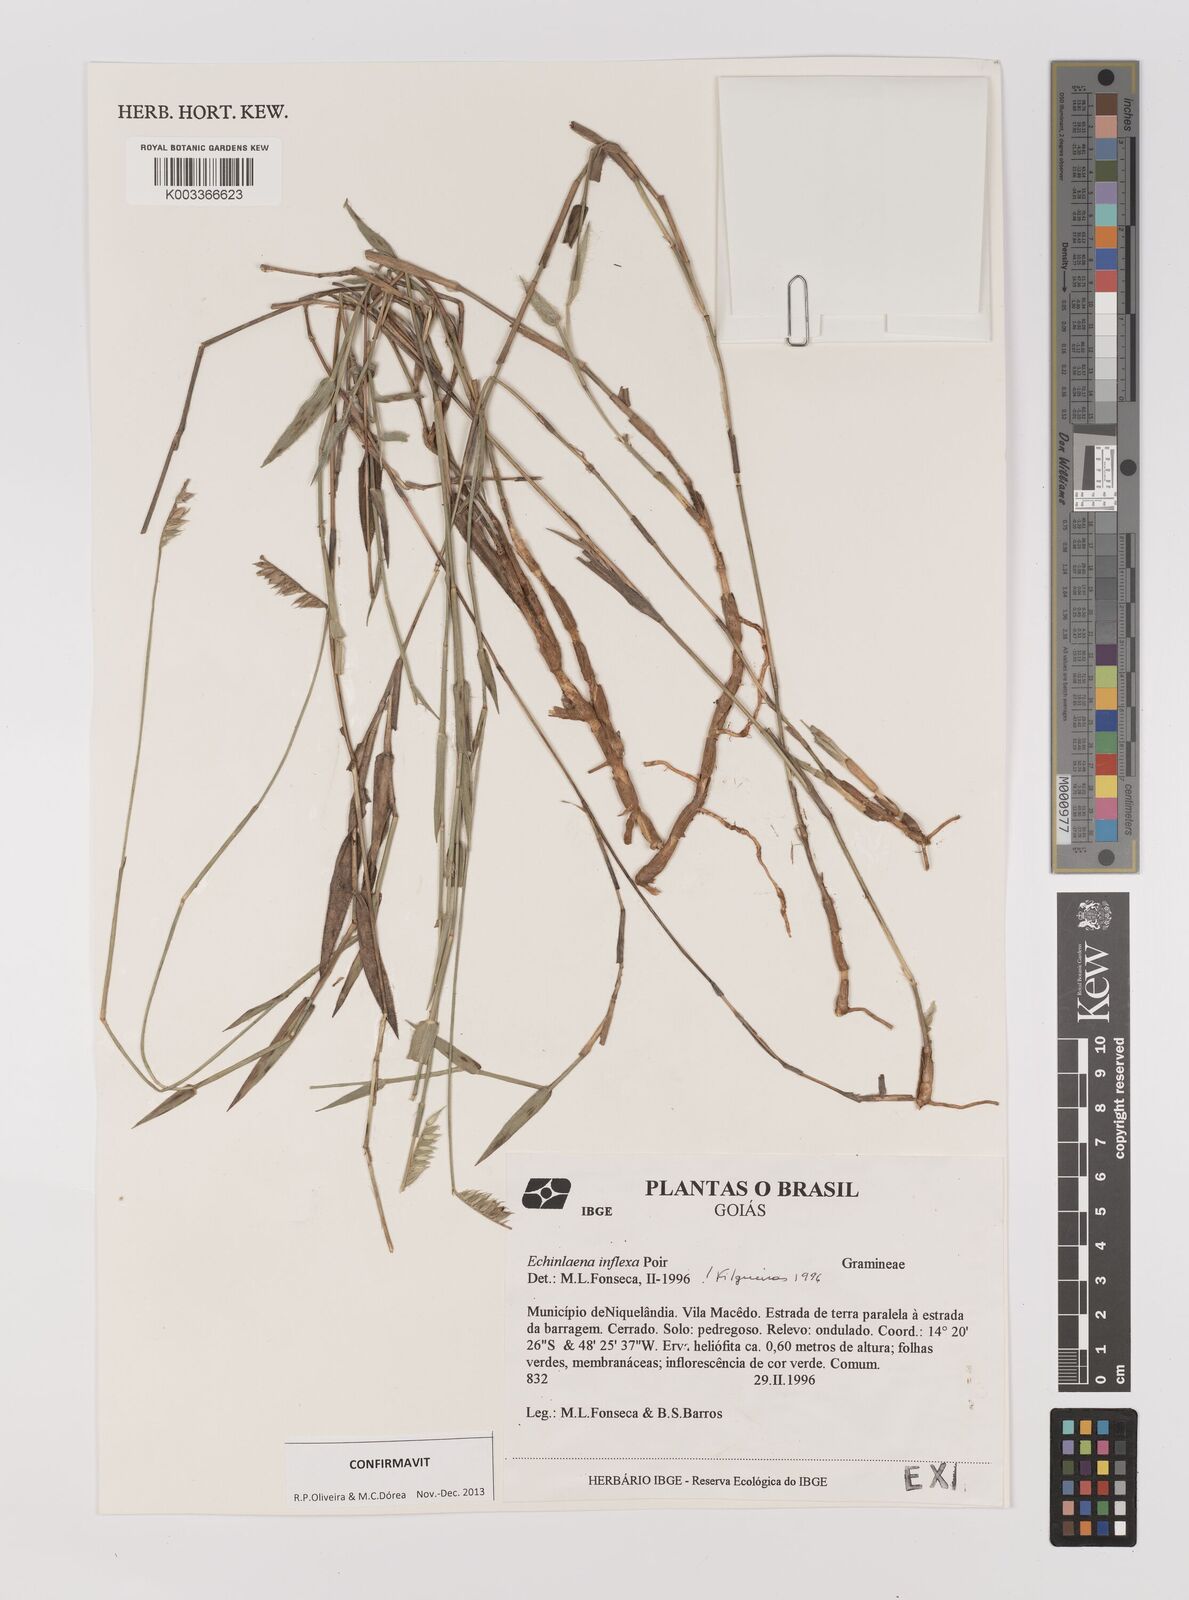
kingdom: Plantae
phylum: Tracheophyta
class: Liliopsida
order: Poales
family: Poaceae
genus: Echinolaena
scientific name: Echinolaena inflexa
